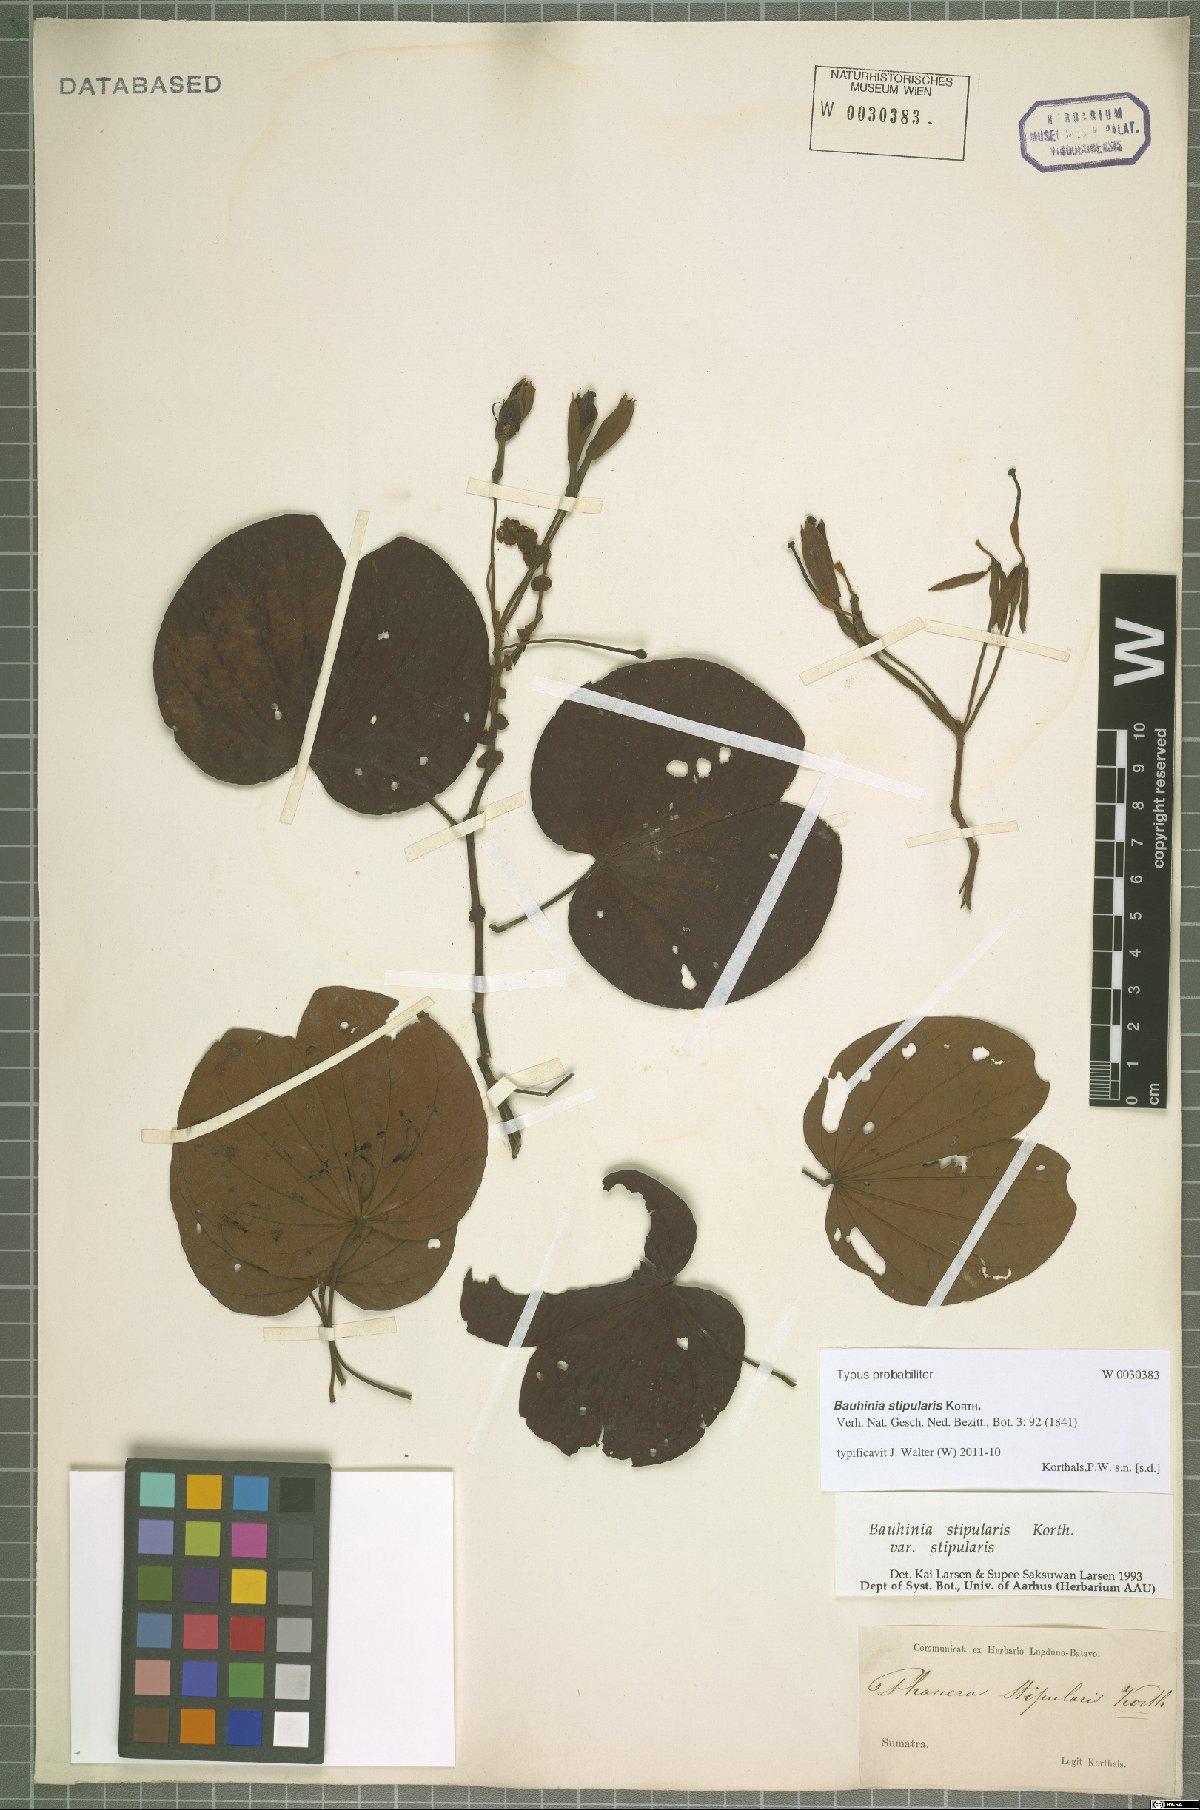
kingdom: Plantae
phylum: Tracheophyta
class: Magnoliopsida
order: Fabales
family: Fabaceae
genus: Phanera
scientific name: Phanera stipularis
